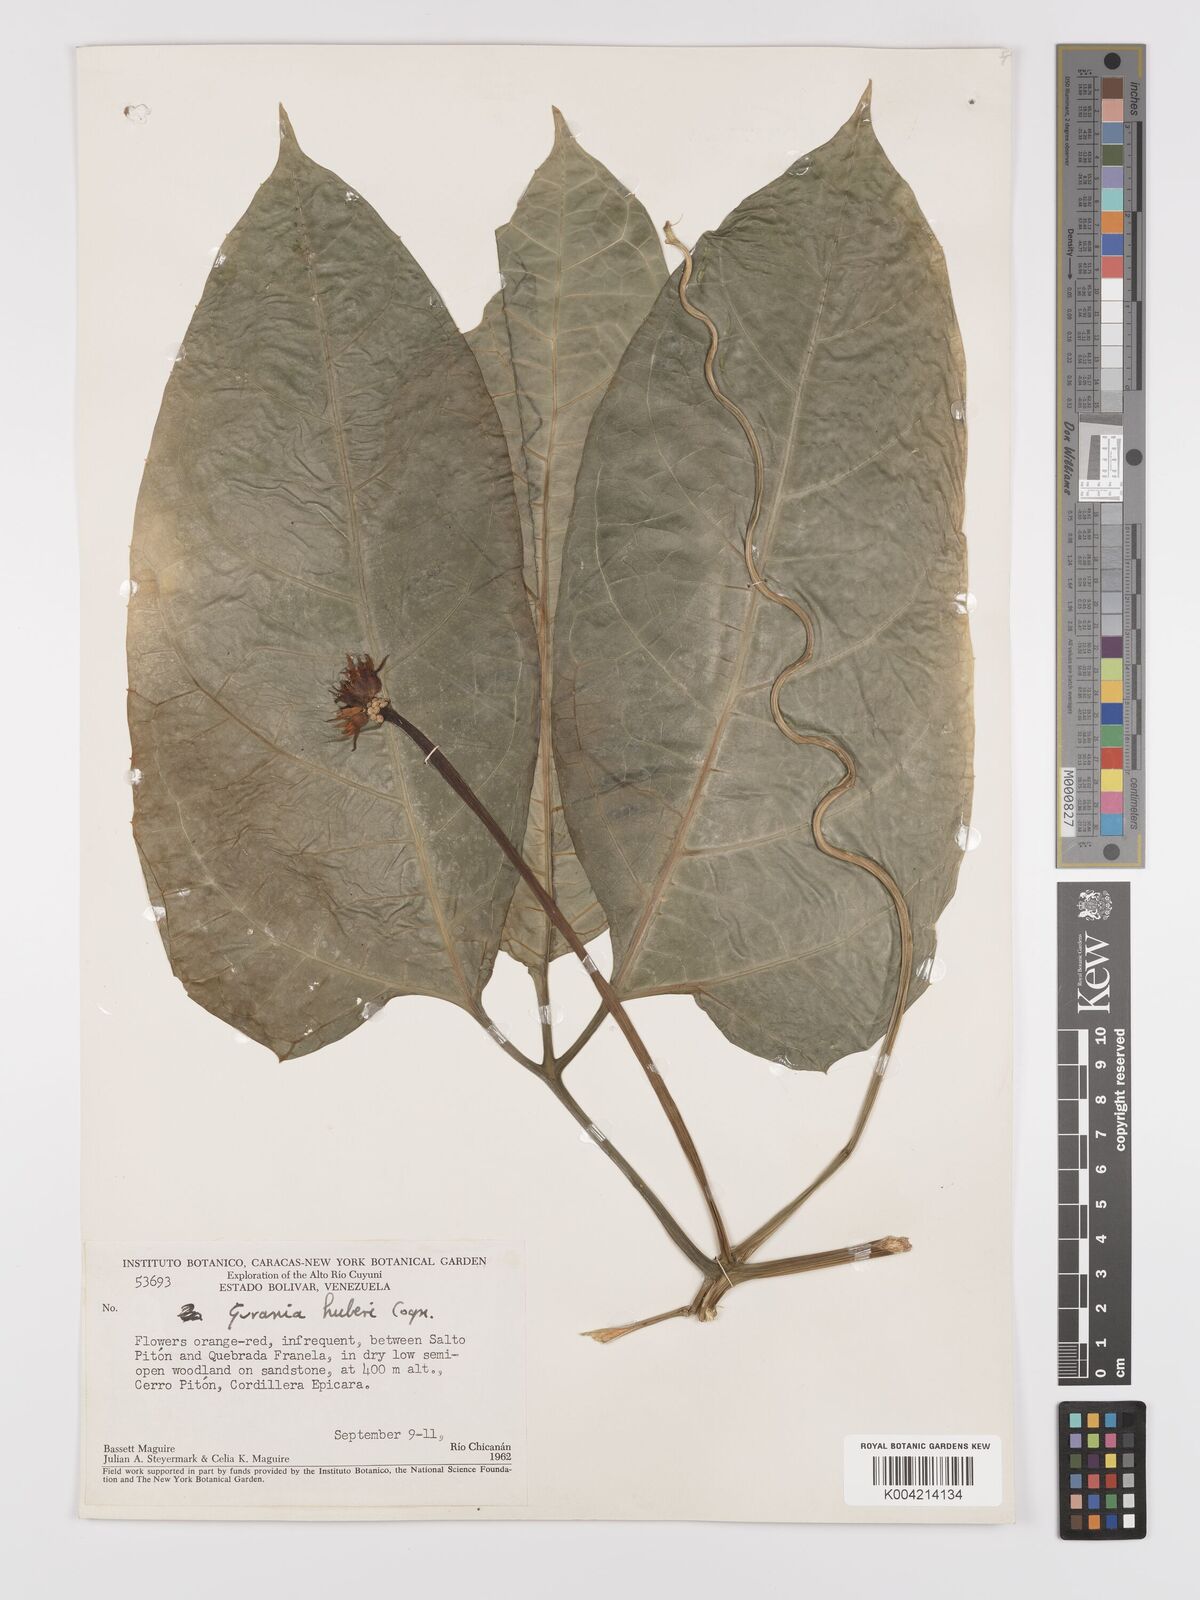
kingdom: Plantae
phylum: Tracheophyta
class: Magnoliopsida
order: Cucurbitales
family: Cucurbitaceae
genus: Gurania
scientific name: Gurania huberi
